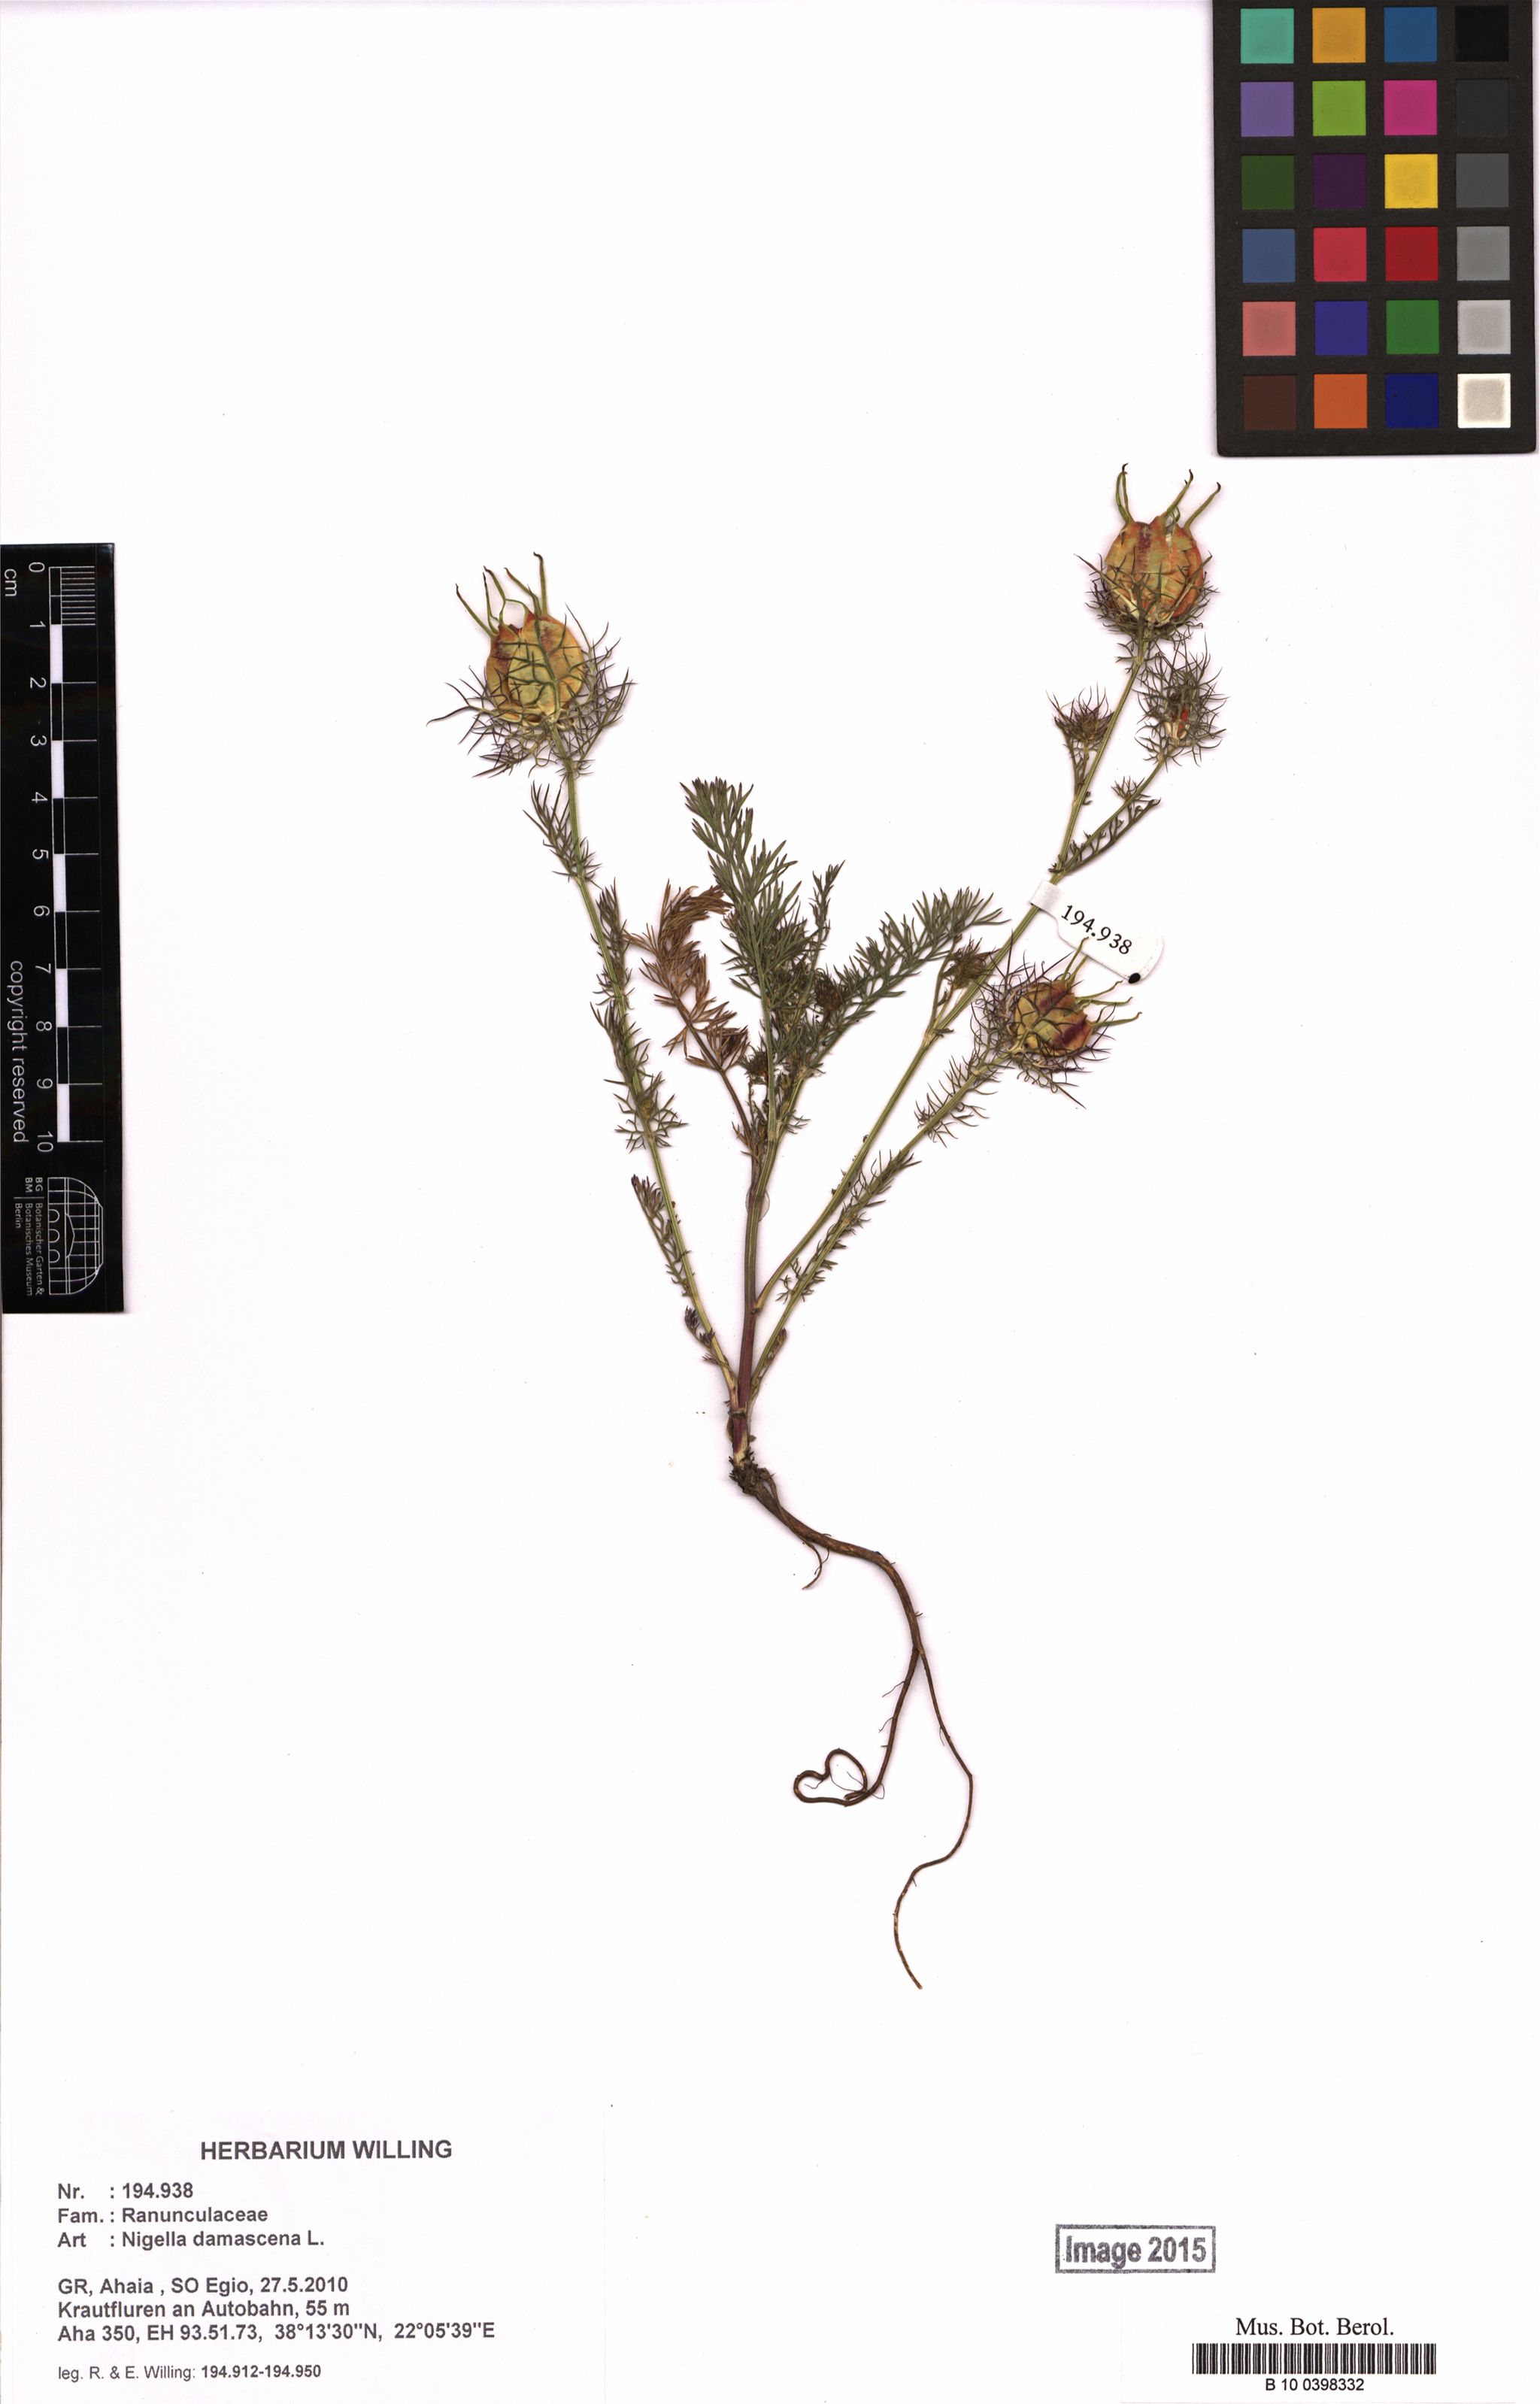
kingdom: Plantae
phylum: Tracheophyta
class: Magnoliopsida
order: Ranunculales
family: Ranunculaceae
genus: Nigella
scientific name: Nigella damascena
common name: Love-in-a-mist
